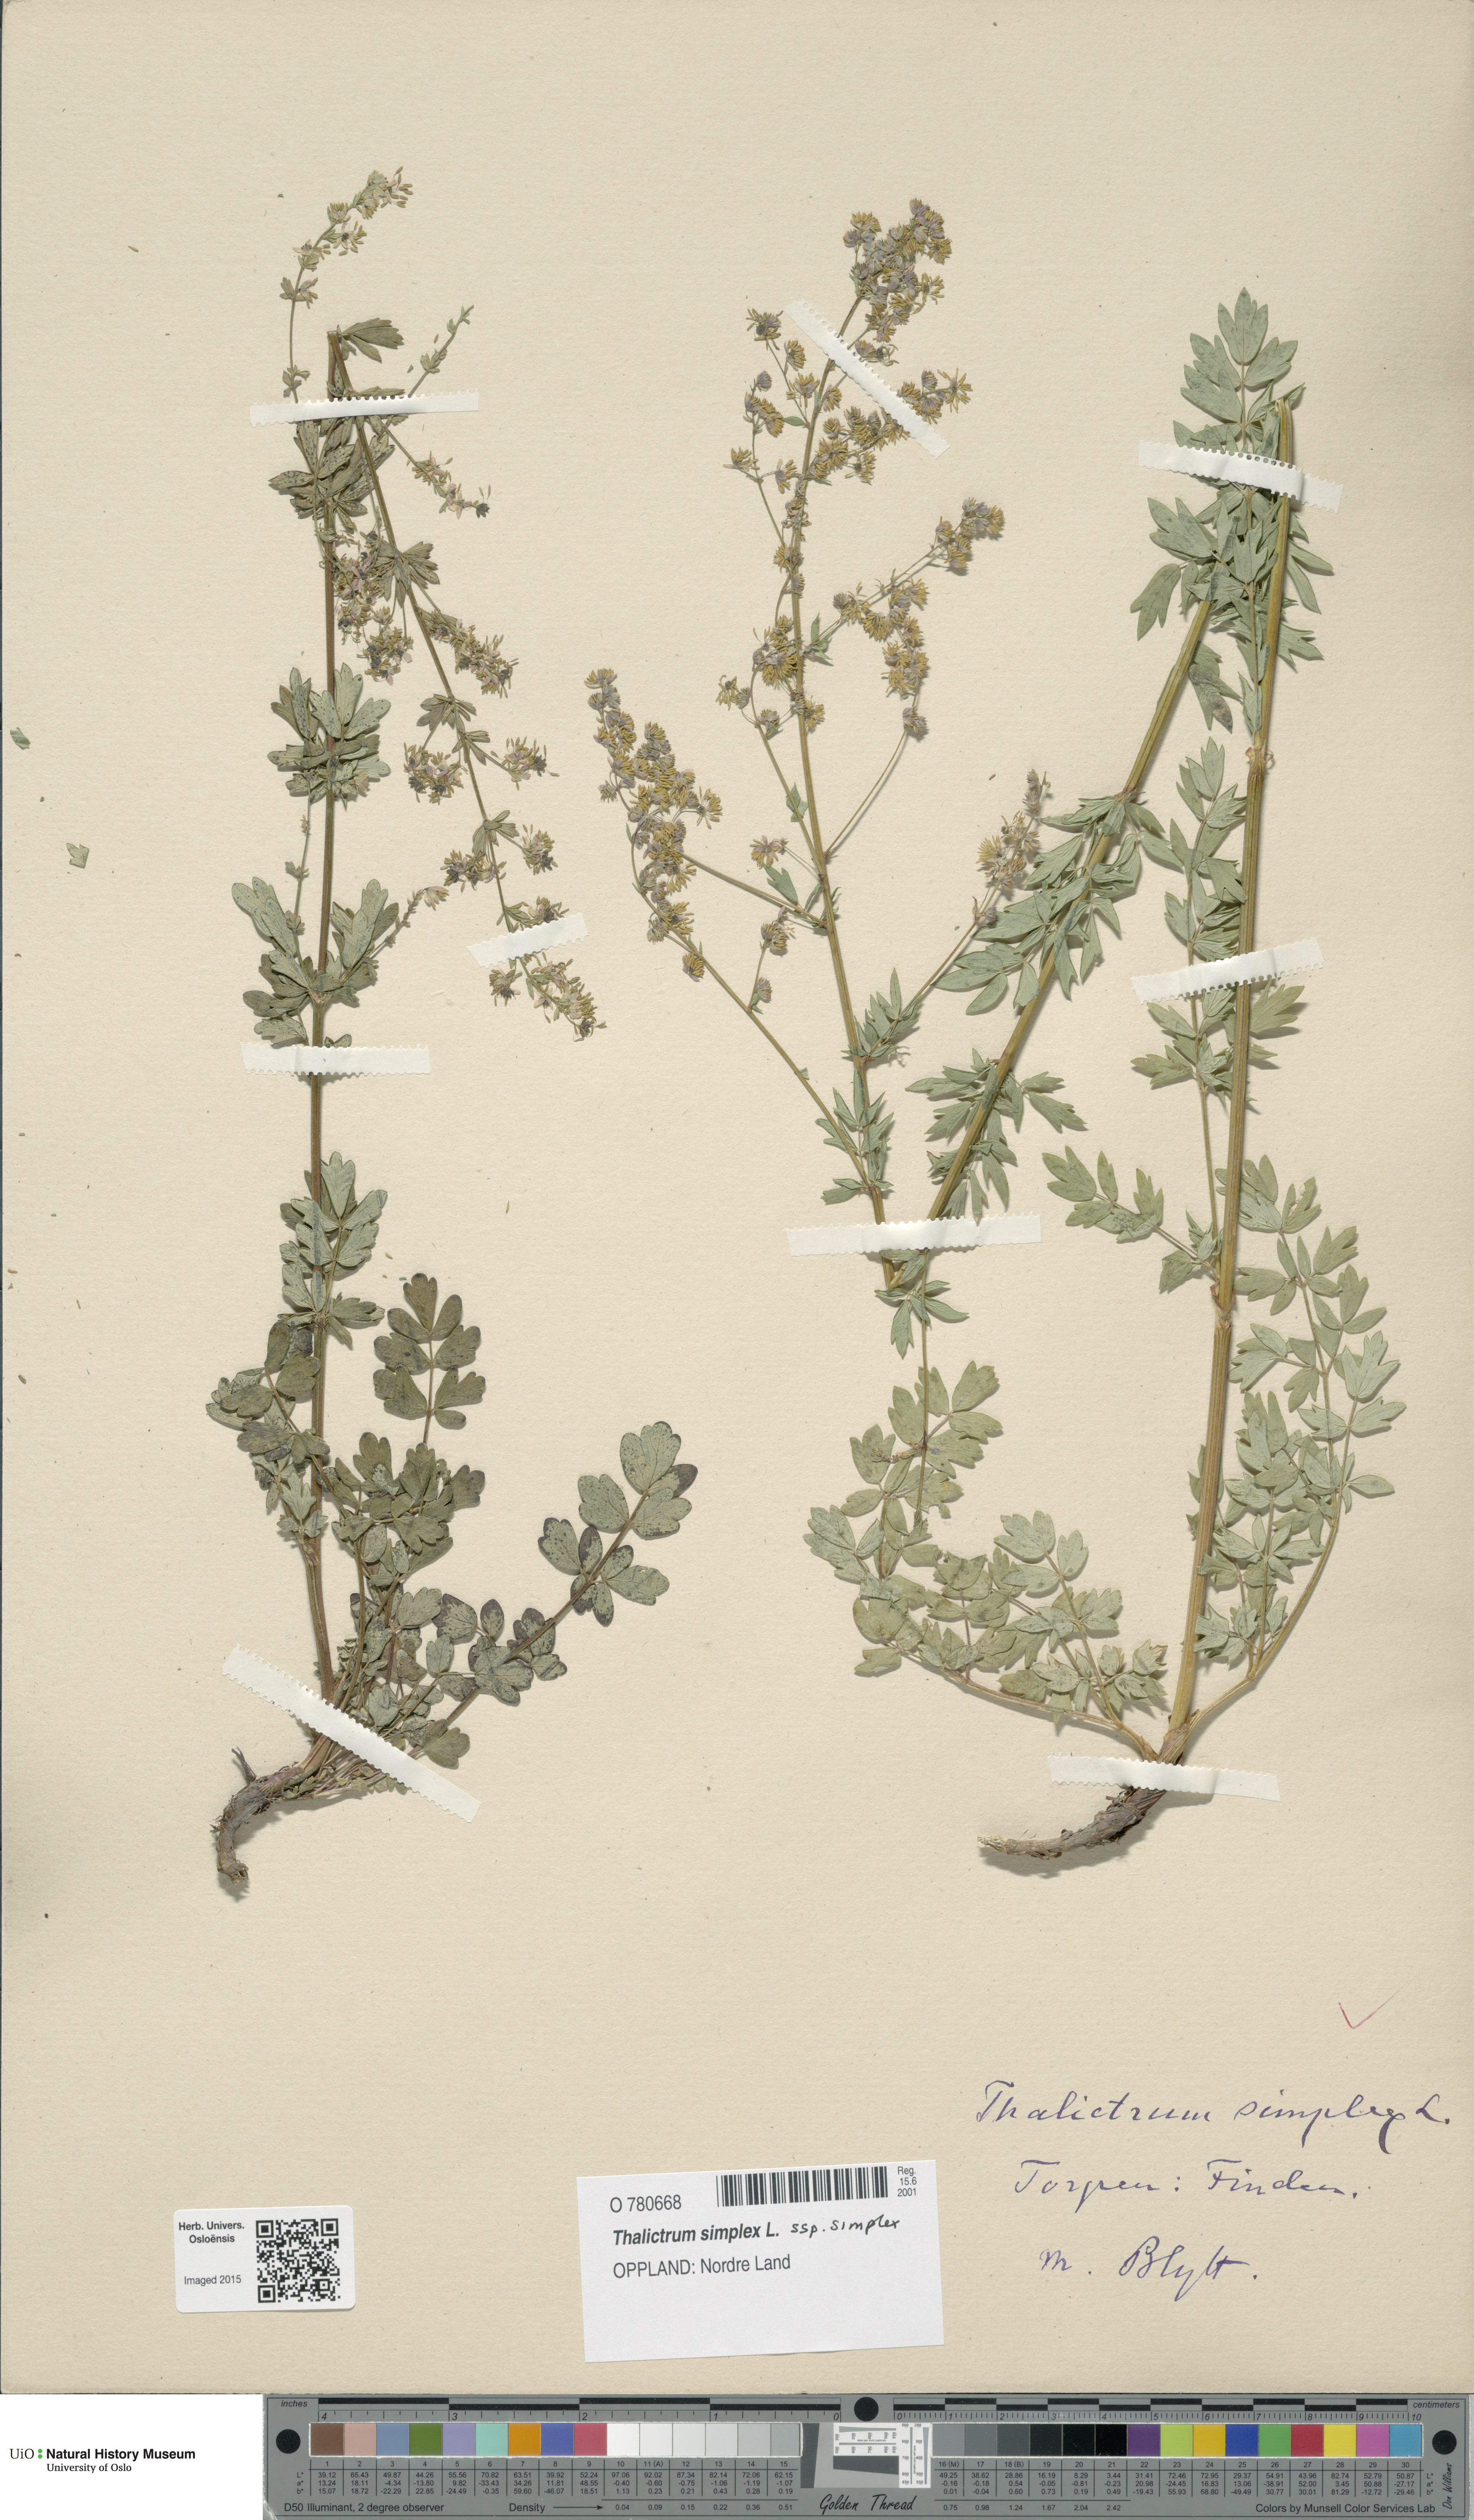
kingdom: Plantae
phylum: Tracheophyta
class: Magnoliopsida
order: Ranunculales
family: Ranunculaceae
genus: Thalictrum
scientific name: Thalictrum simplex
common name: Small meadow-rue
